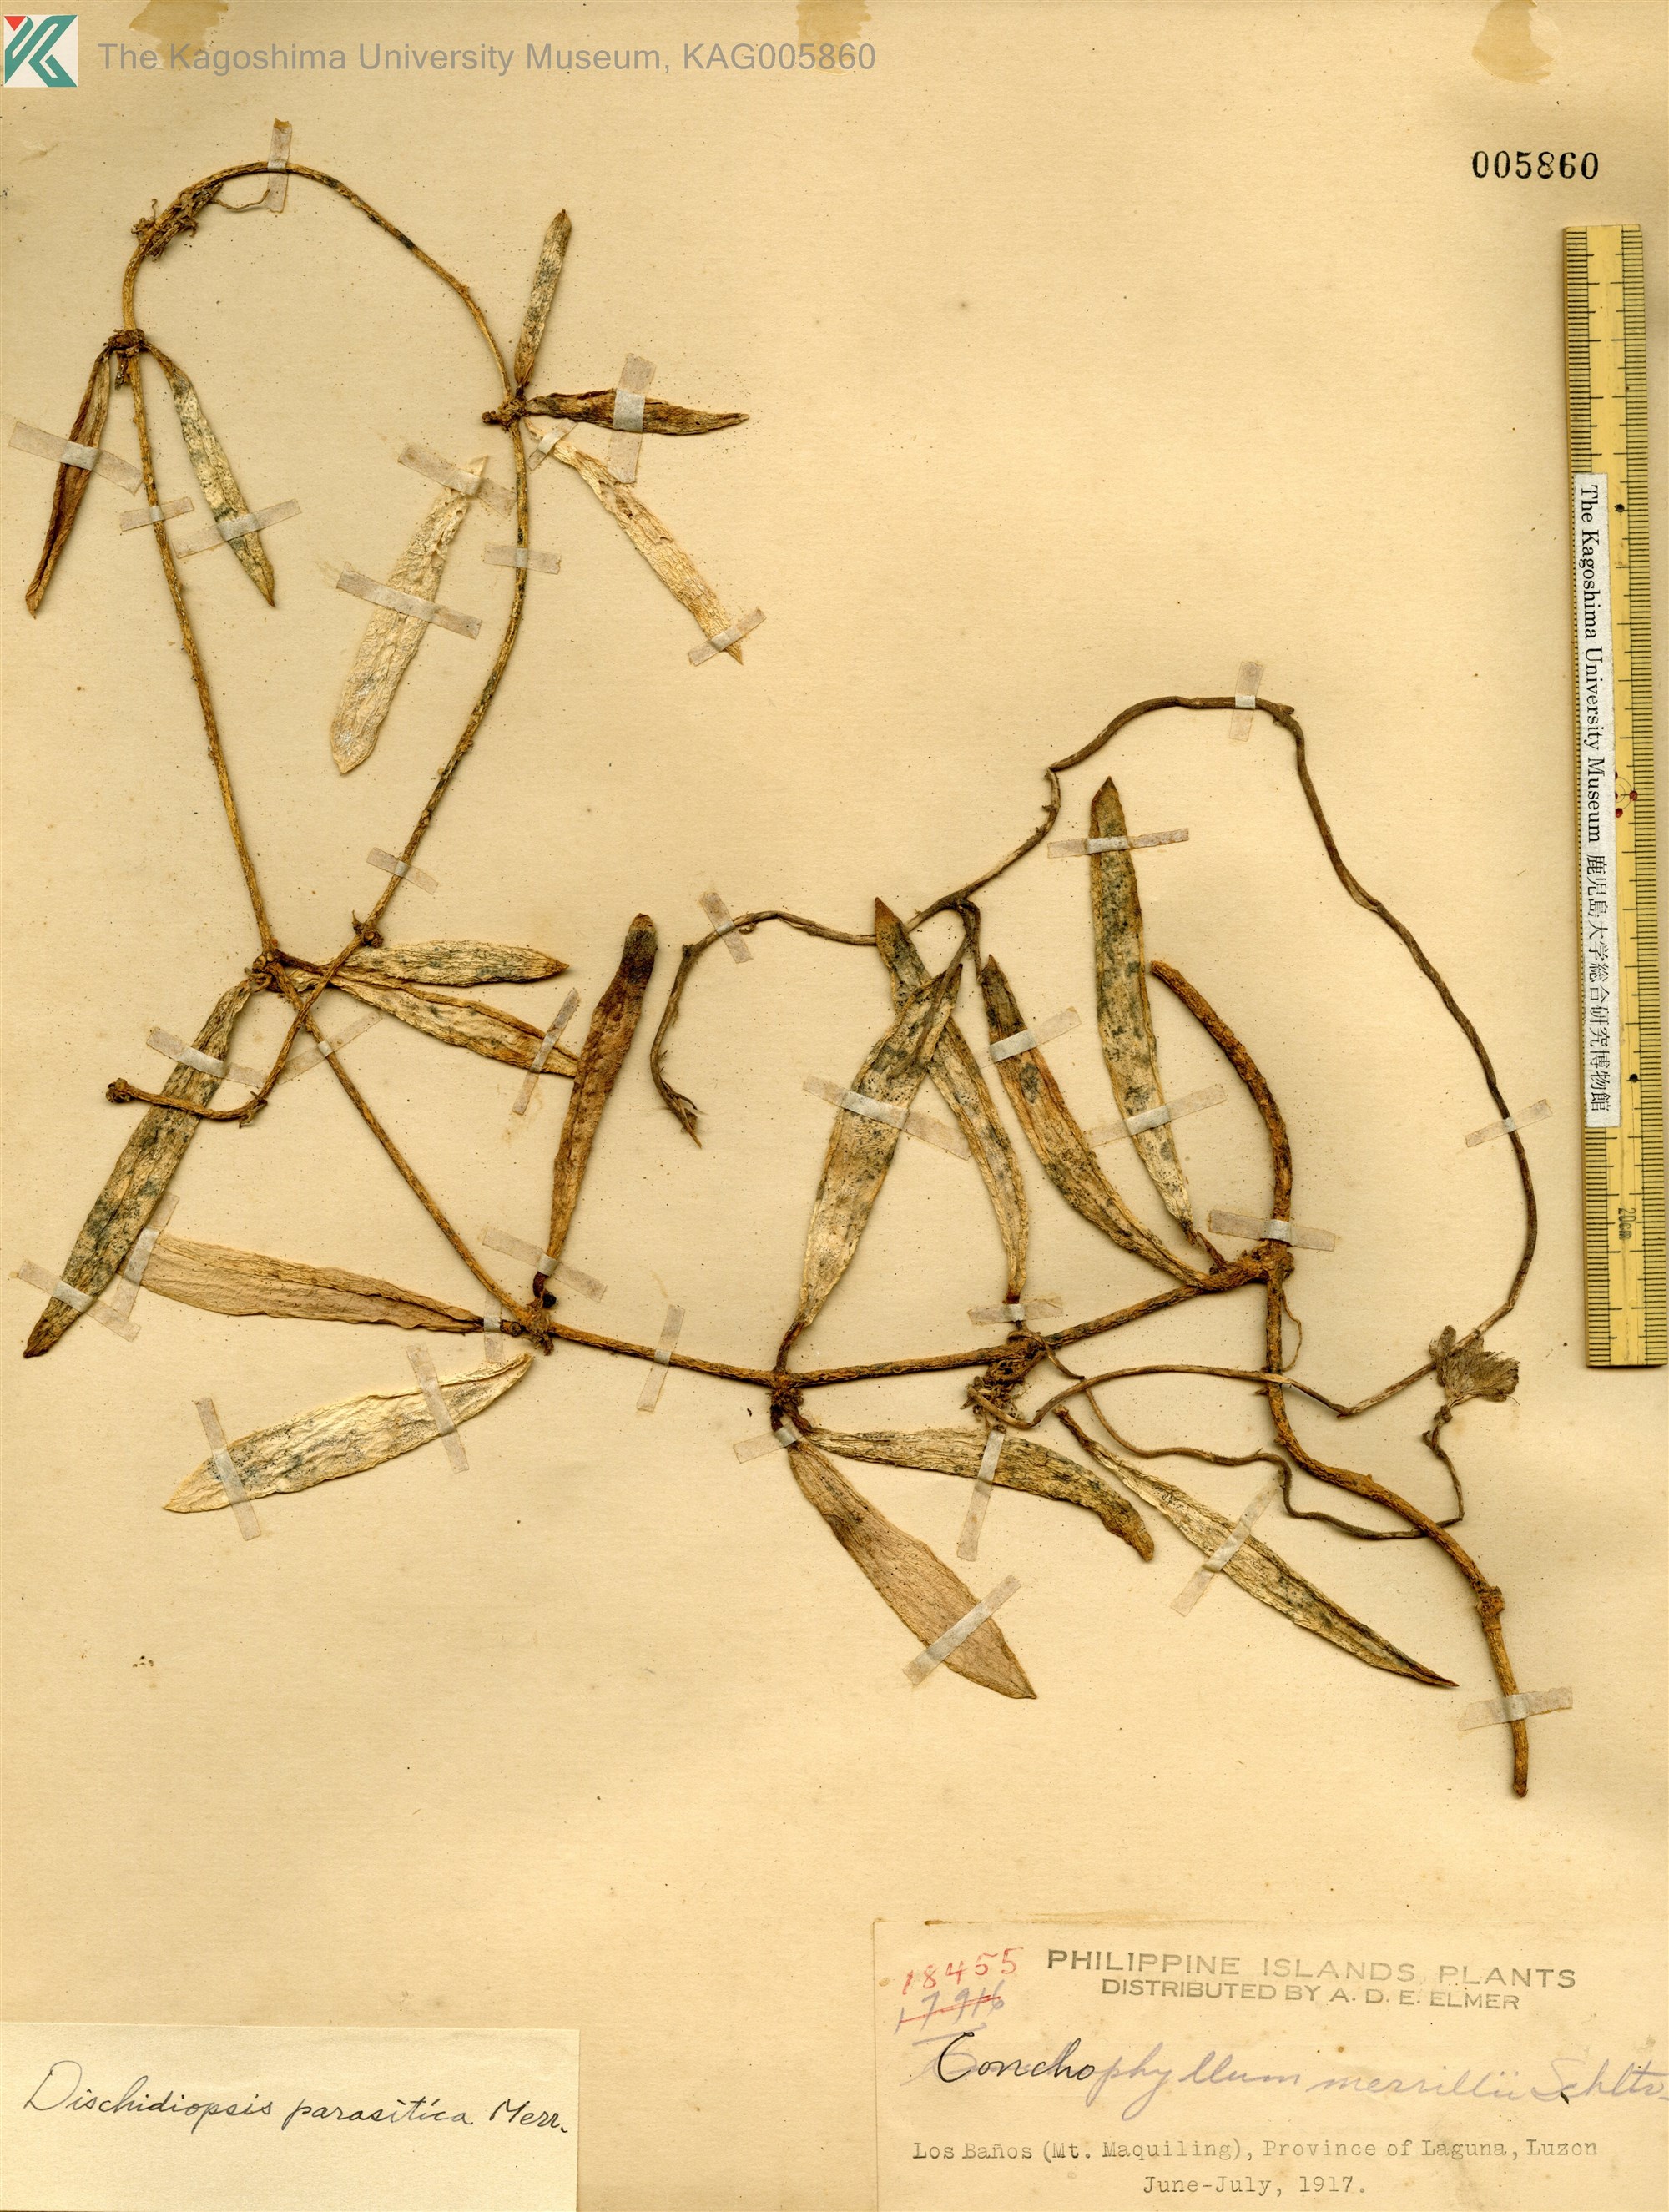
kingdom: Plantae
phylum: Tracheophyta
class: Magnoliopsida
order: Gentianales
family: Apocynaceae
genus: Dischidia
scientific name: Dischidia incrassata
